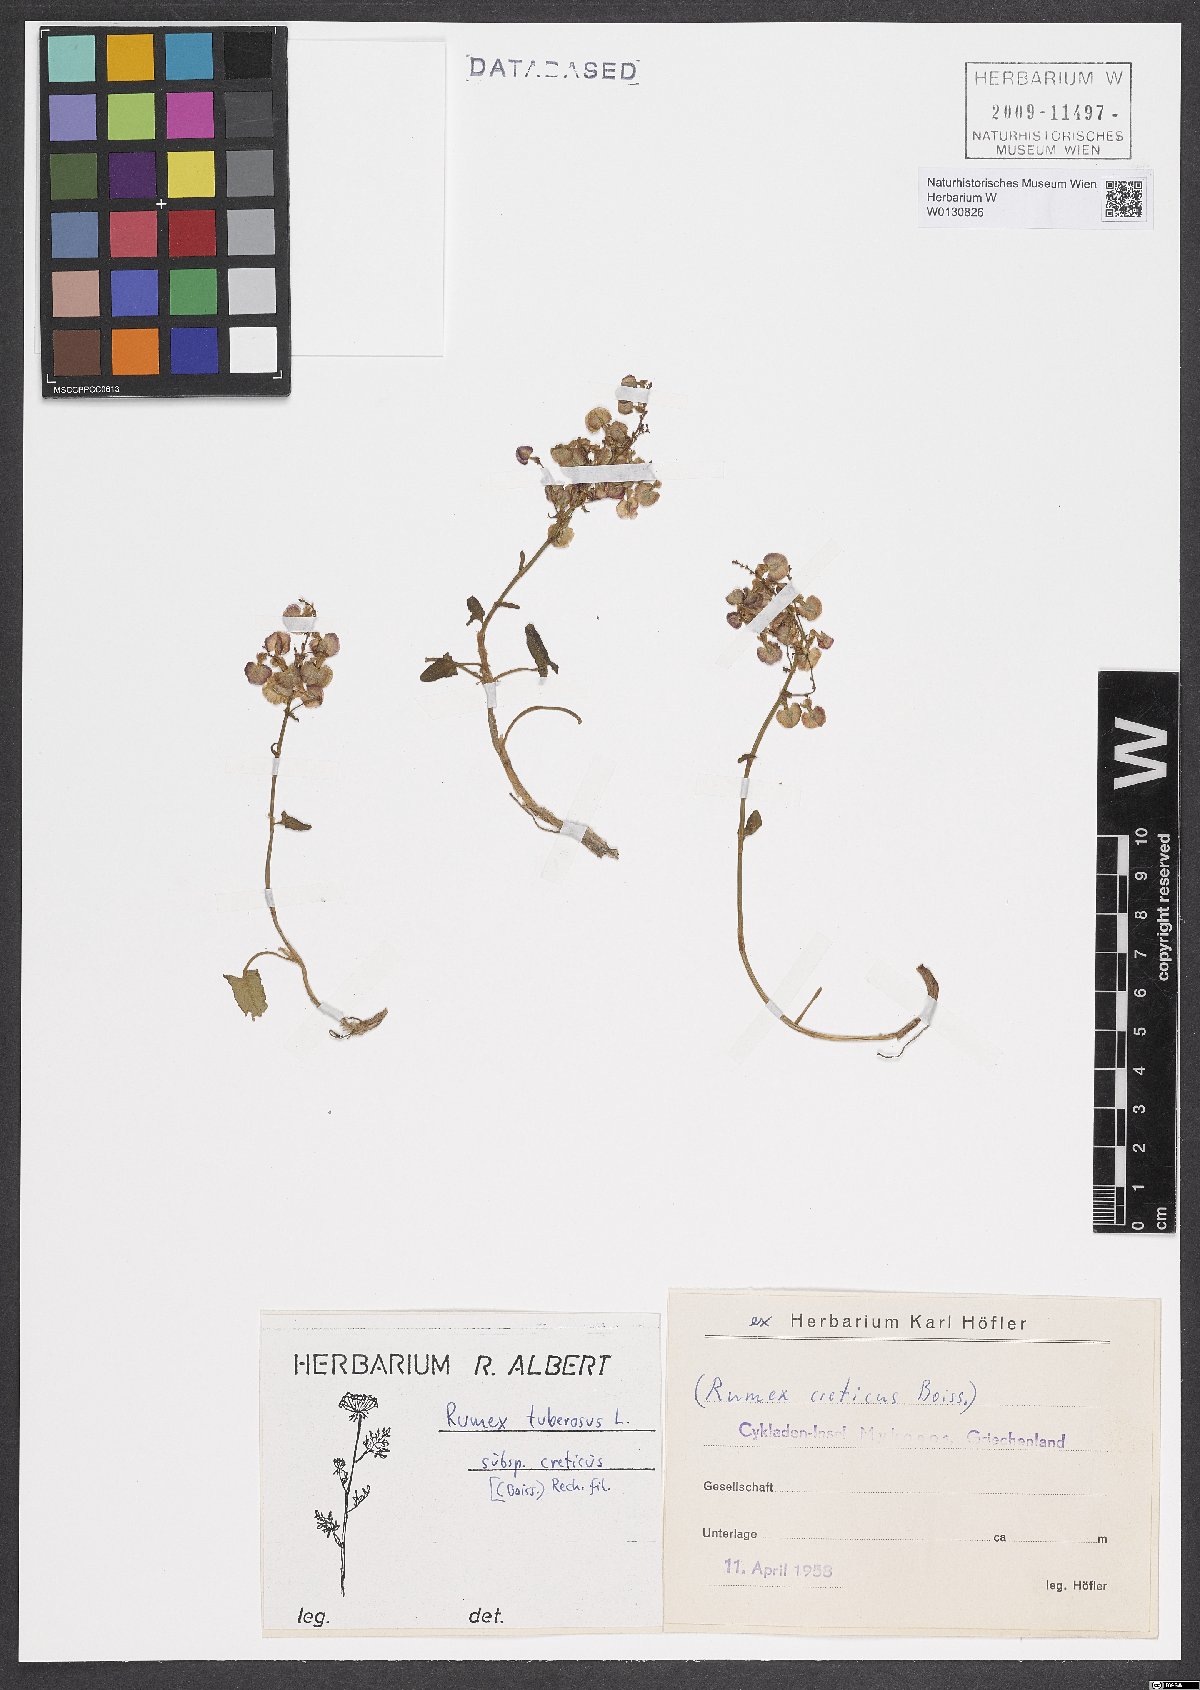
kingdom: Plantae
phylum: Tracheophyta
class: Magnoliopsida
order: Caryophyllales
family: Polygonaceae
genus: Rumex
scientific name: Rumex tuberosus
